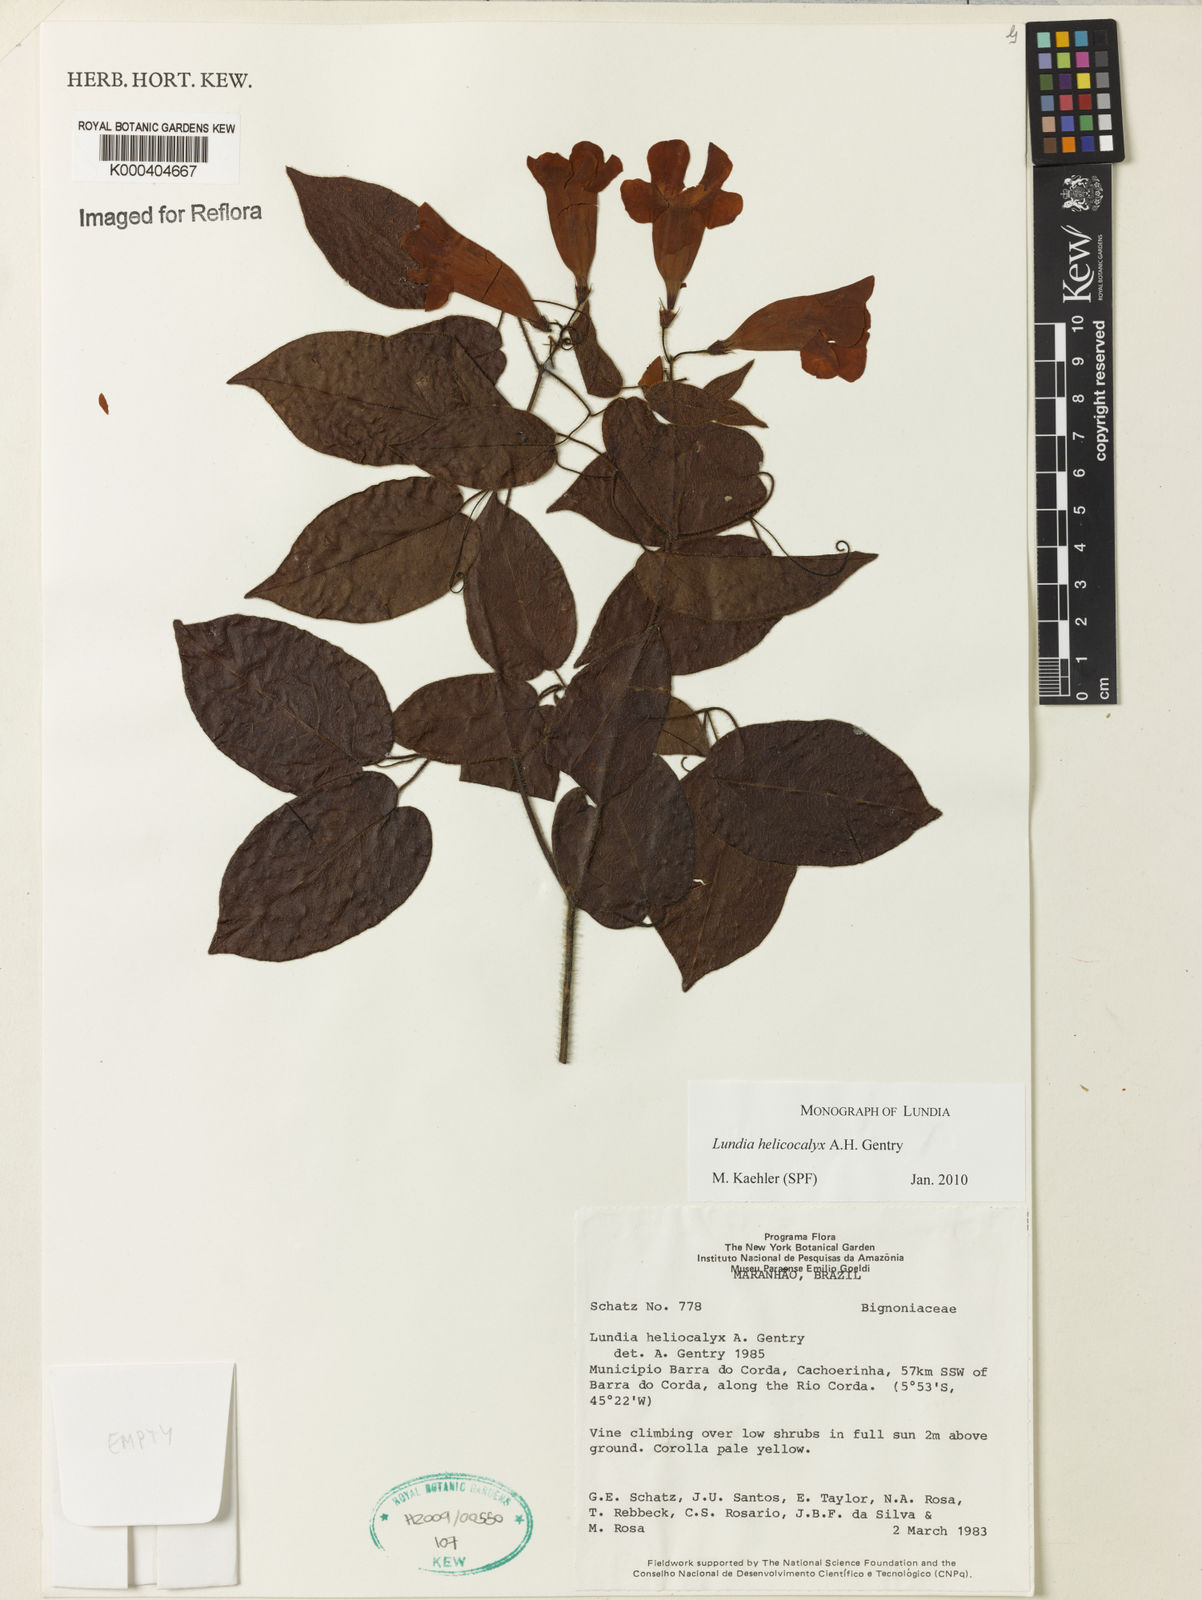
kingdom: Plantae
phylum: Tracheophyta
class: Magnoliopsida
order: Lamiales
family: Bignoniaceae
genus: Lundia
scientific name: Lundia helicocalyx
